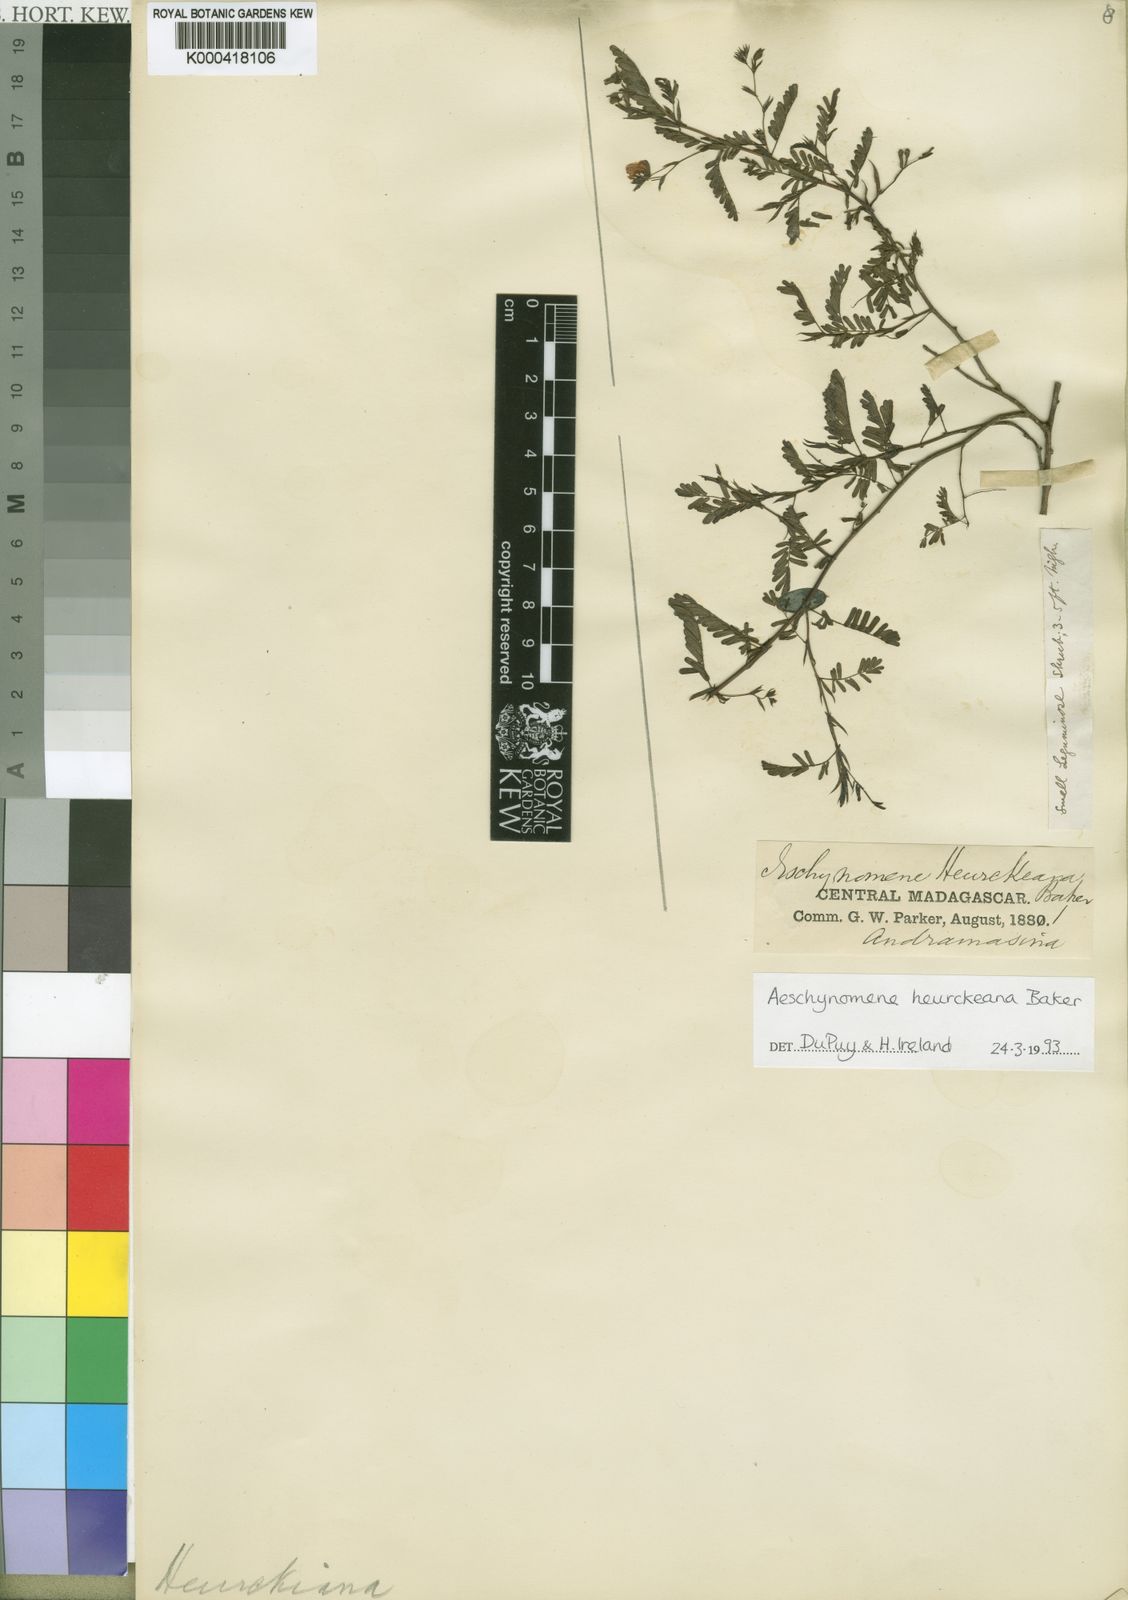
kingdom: Plantae
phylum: Tracheophyta
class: Magnoliopsida
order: Fabales
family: Fabaceae
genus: Aeschynomene
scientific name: Aeschynomene heurckeana
